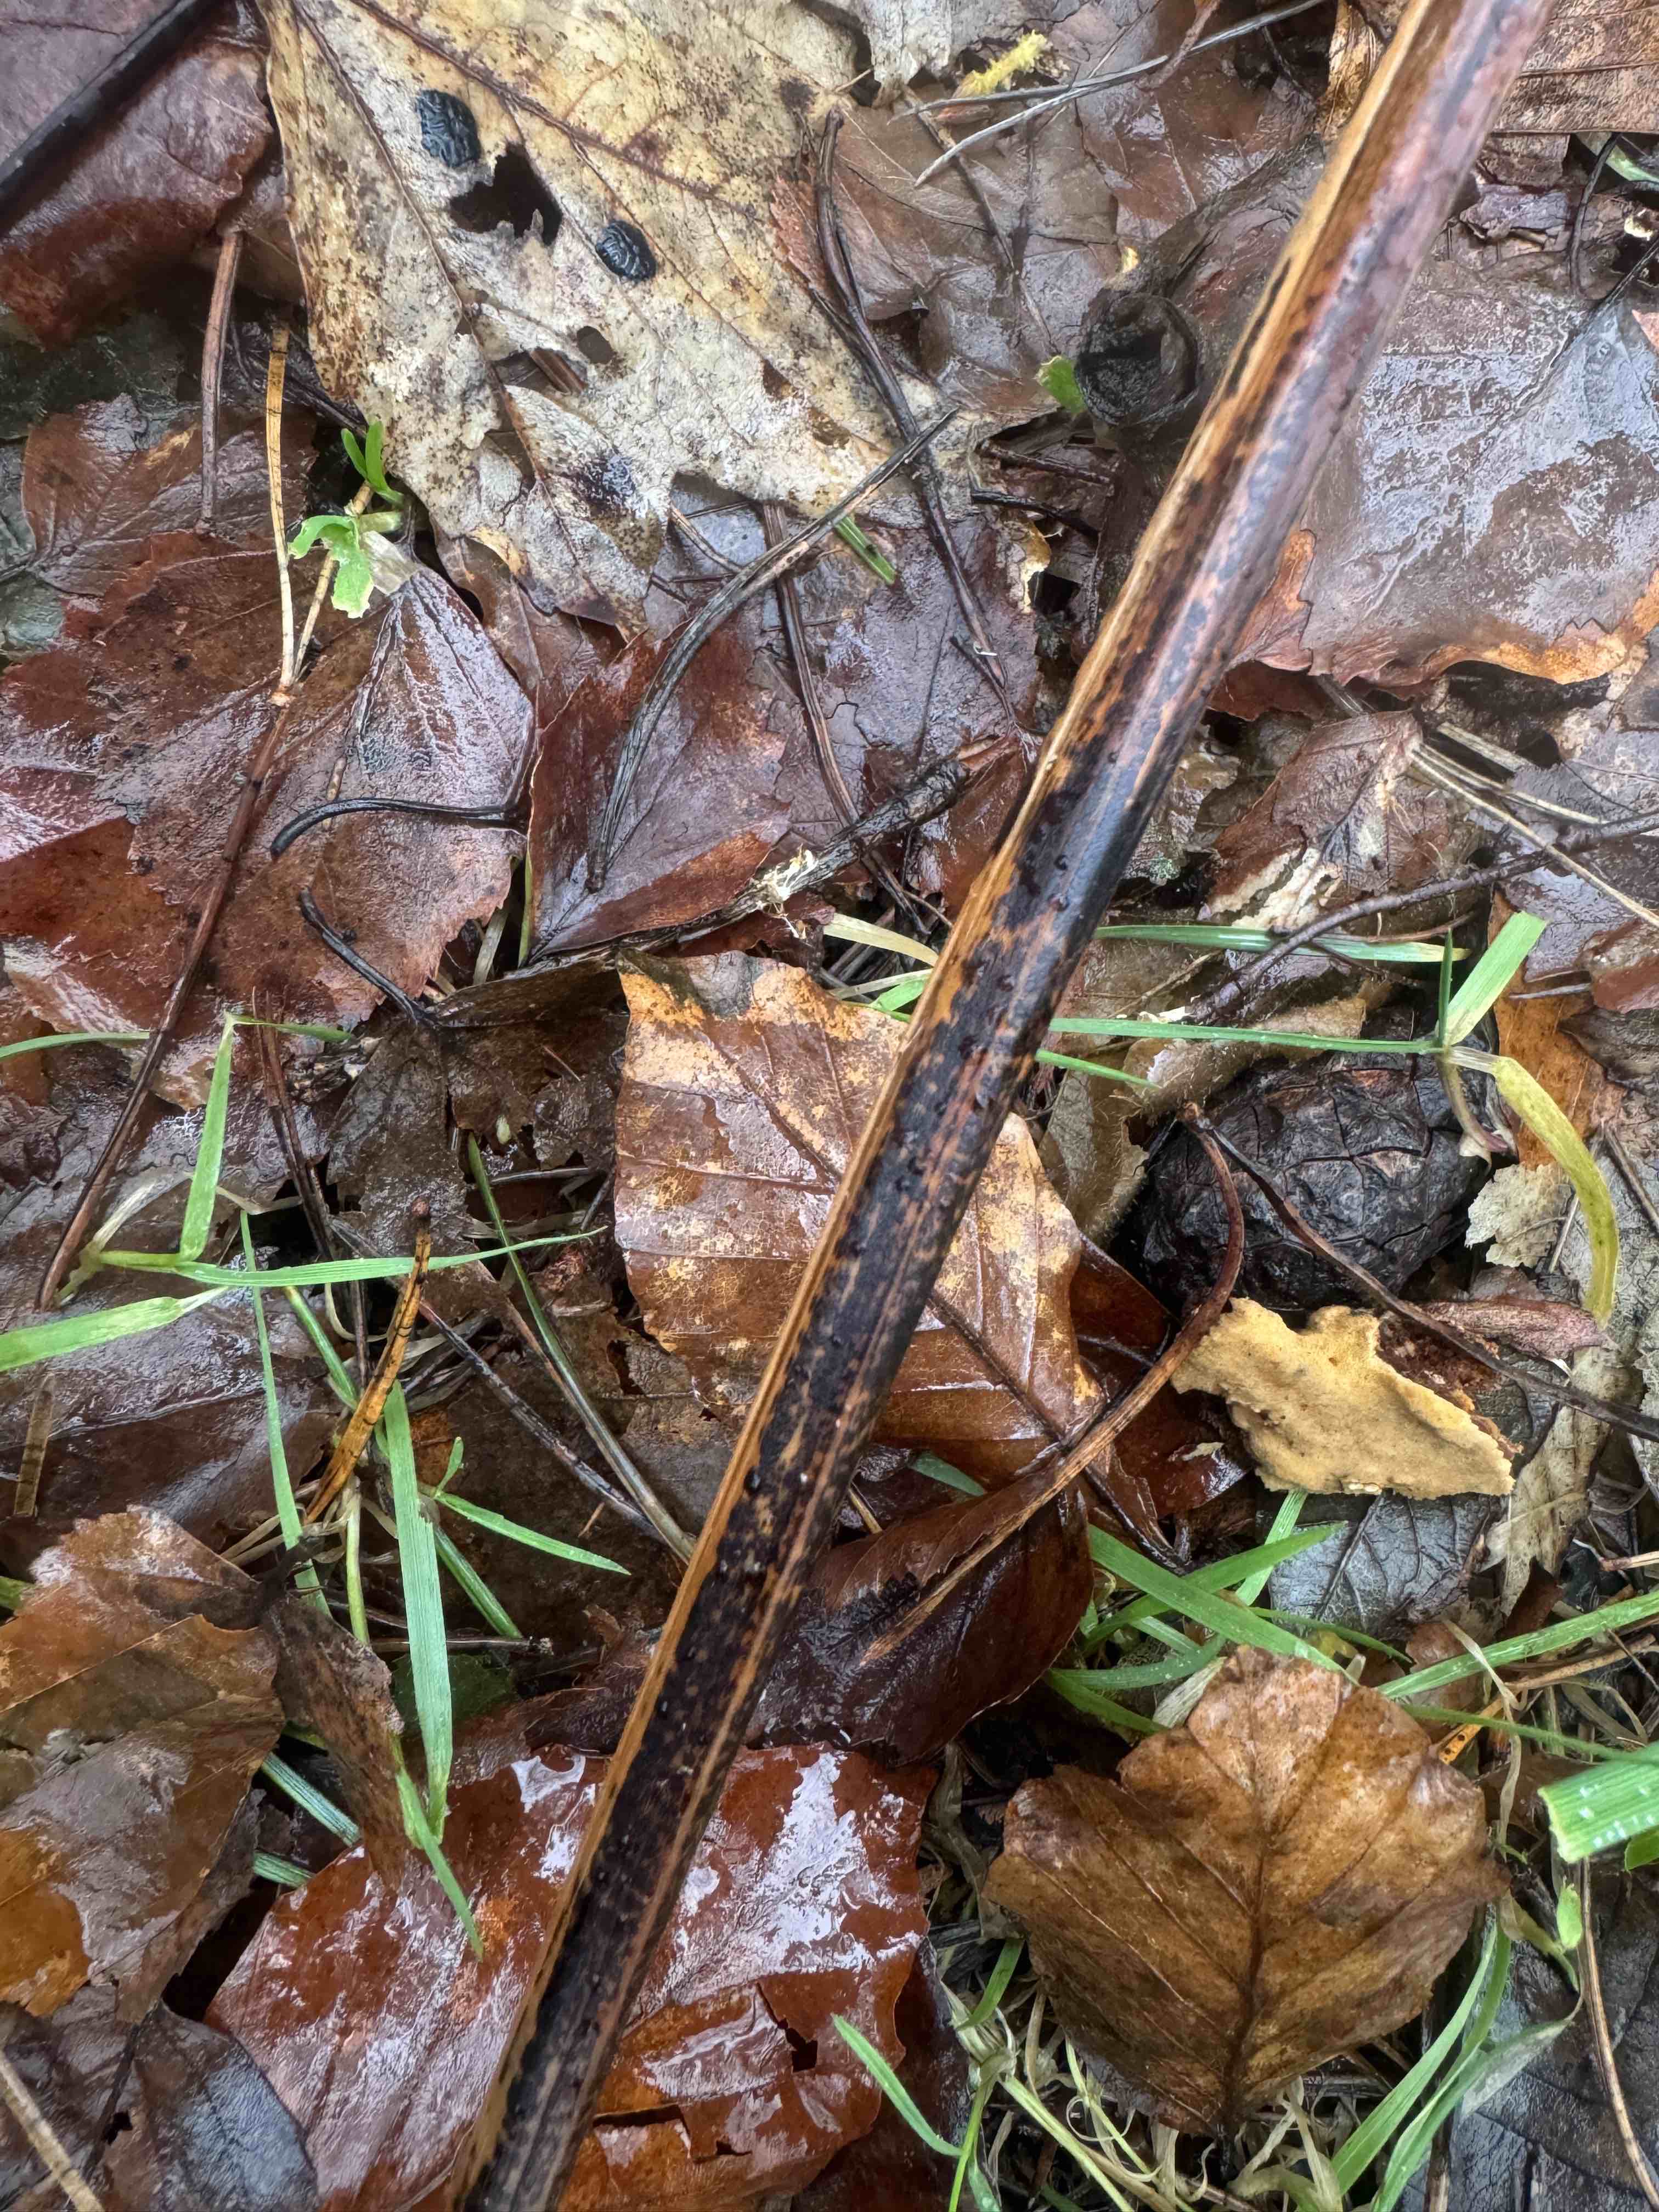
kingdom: Fungi
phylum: Ascomycota
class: Dothideomycetes
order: Pleosporales
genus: Rhopographus
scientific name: Rhopographus filicinus
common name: Bracken map
